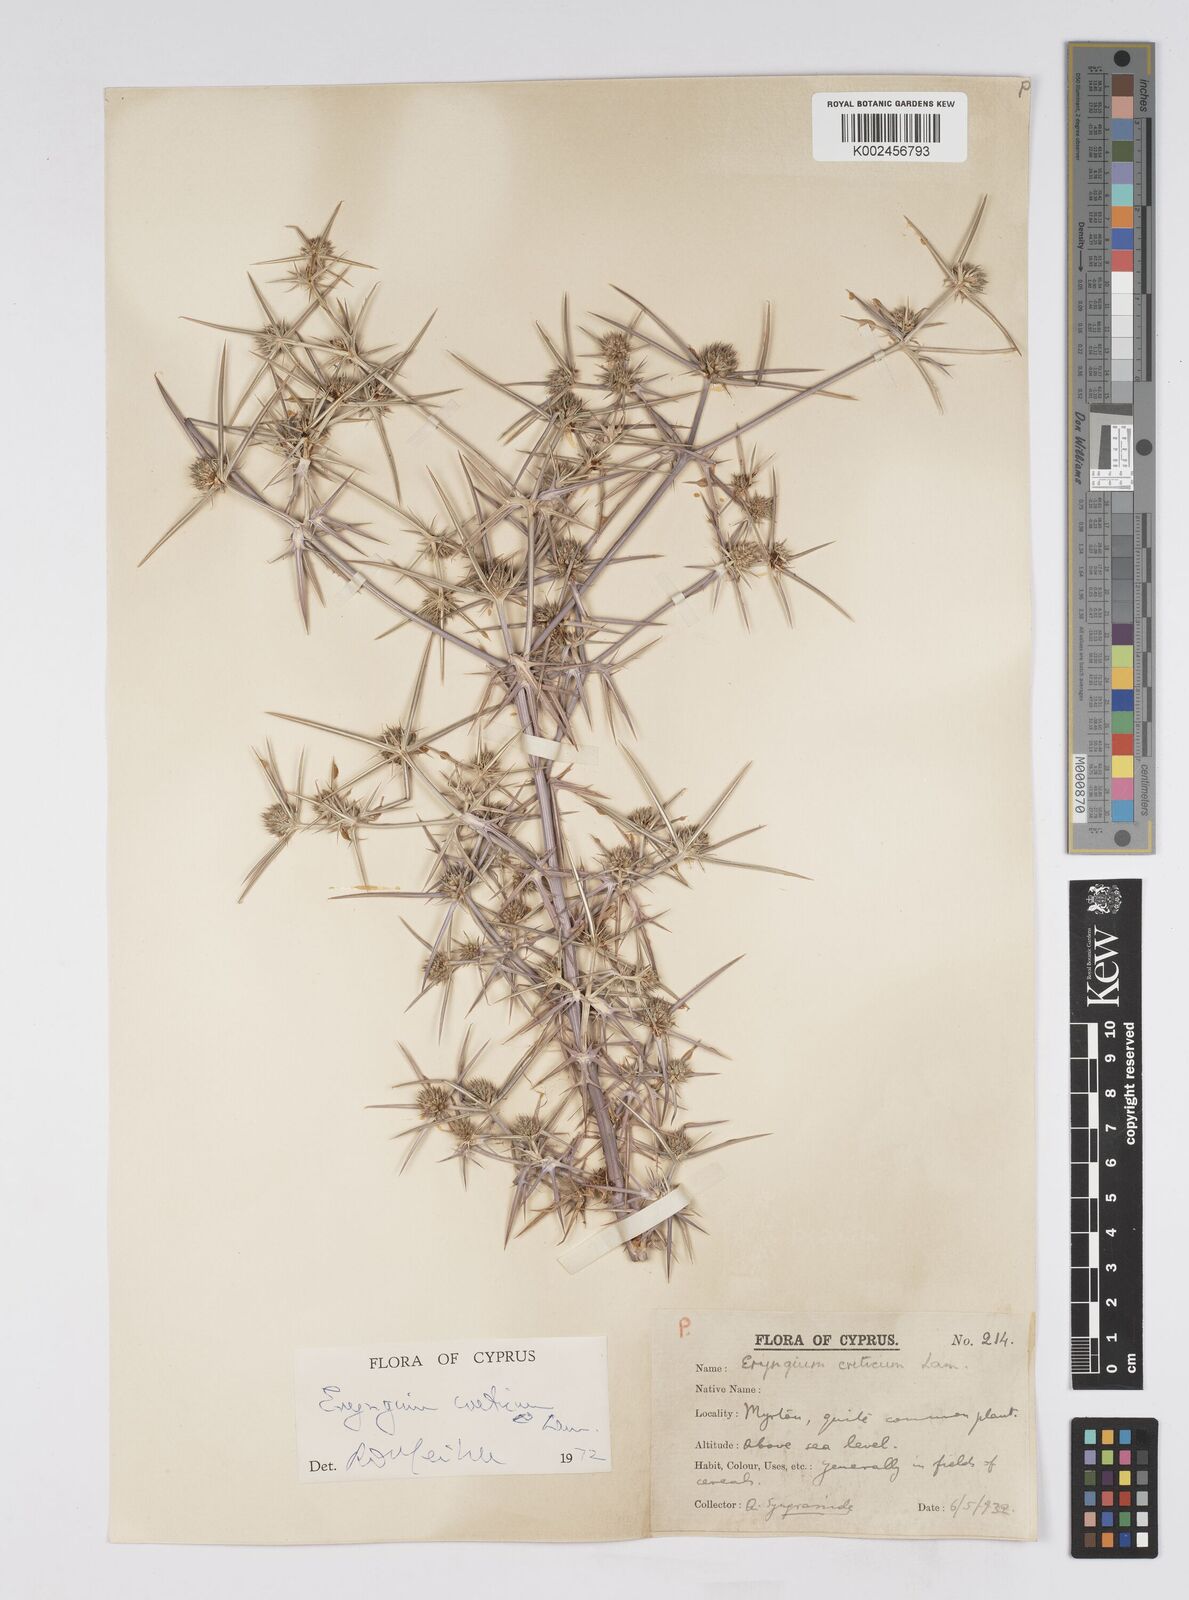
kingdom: Plantae
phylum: Tracheophyta
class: Magnoliopsida
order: Apiales
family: Apiaceae
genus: Eryngium
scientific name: Eryngium creticum
